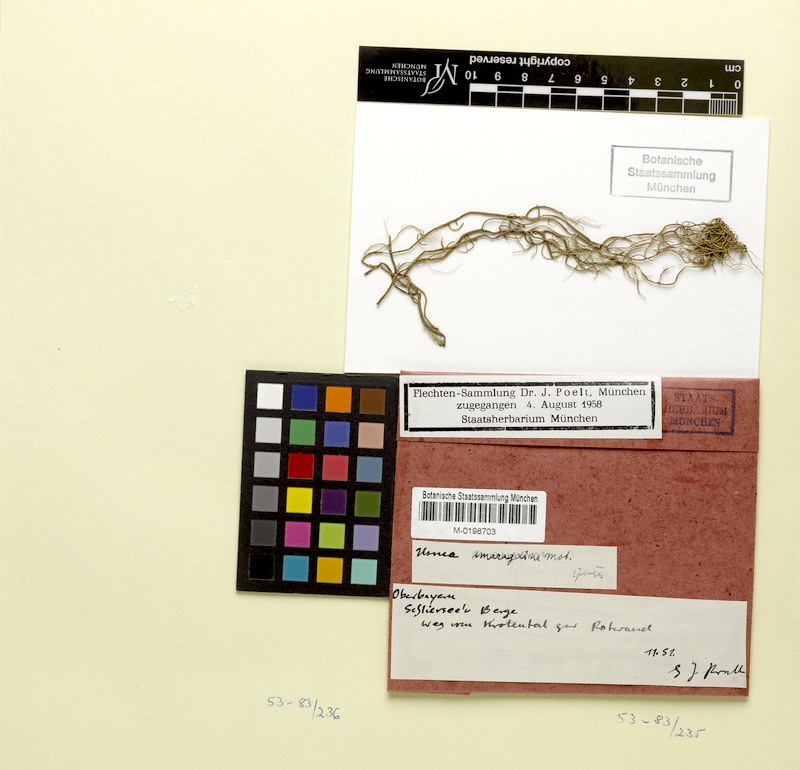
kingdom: Fungi
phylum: Ascomycota
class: Lecanoromycetes
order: Lecanorales
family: Parmeliaceae
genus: Usnea
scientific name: Usnea intermedia
